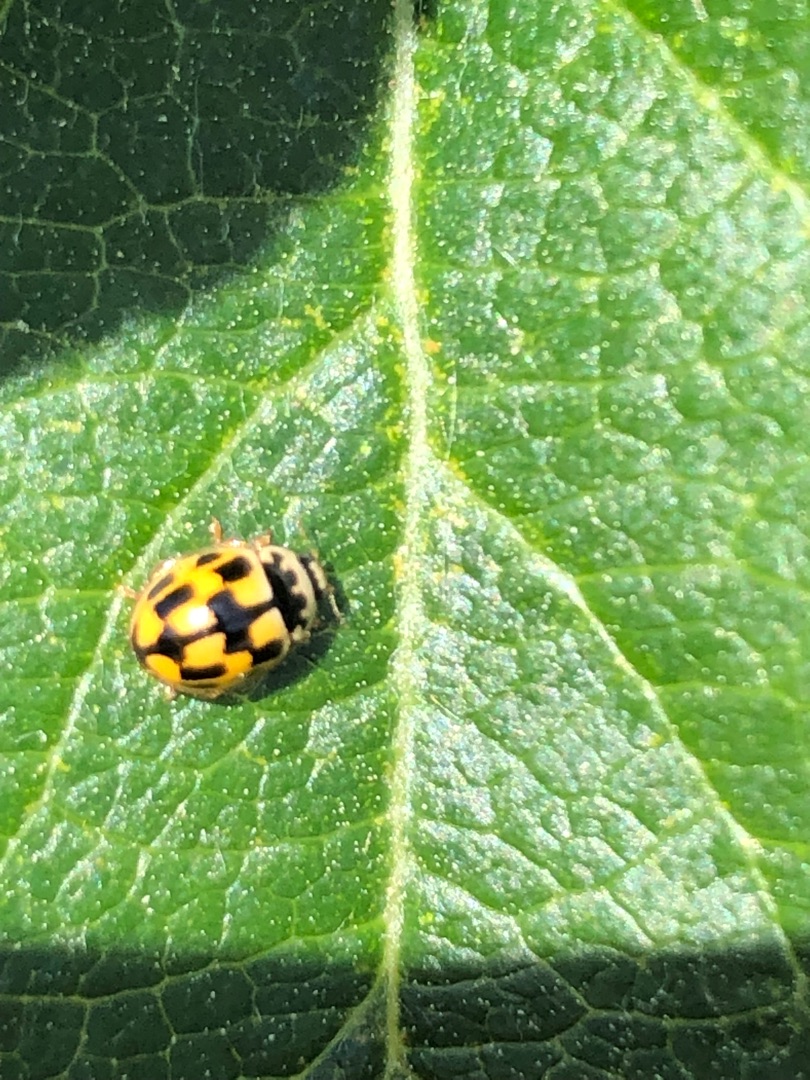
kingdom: Animalia
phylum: Arthropoda
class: Insecta
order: Coleoptera
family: Coccinellidae
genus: Propylaea
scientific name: Propylaea quatuordecimpunctata
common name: Skakbræt
